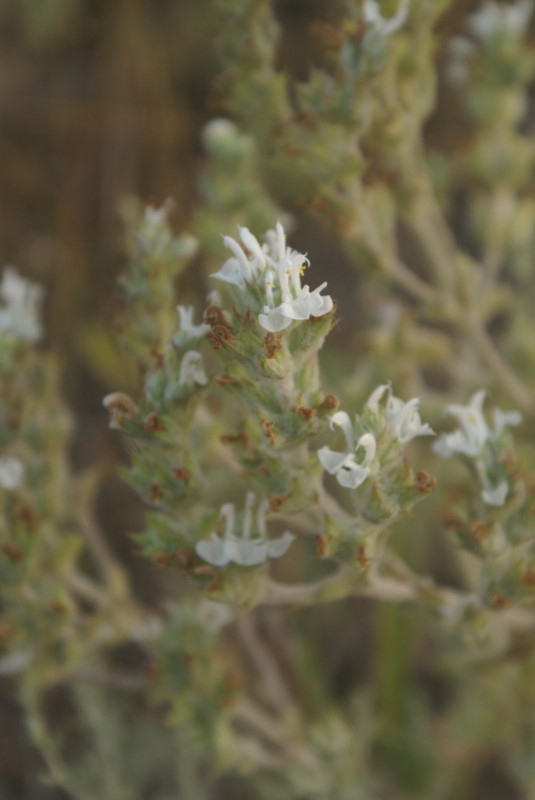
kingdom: Plantae
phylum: Tracheophyta
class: Magnoliopsida
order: Lamiales
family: Lamiaceae
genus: Salvia
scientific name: Salvia aethiopis
